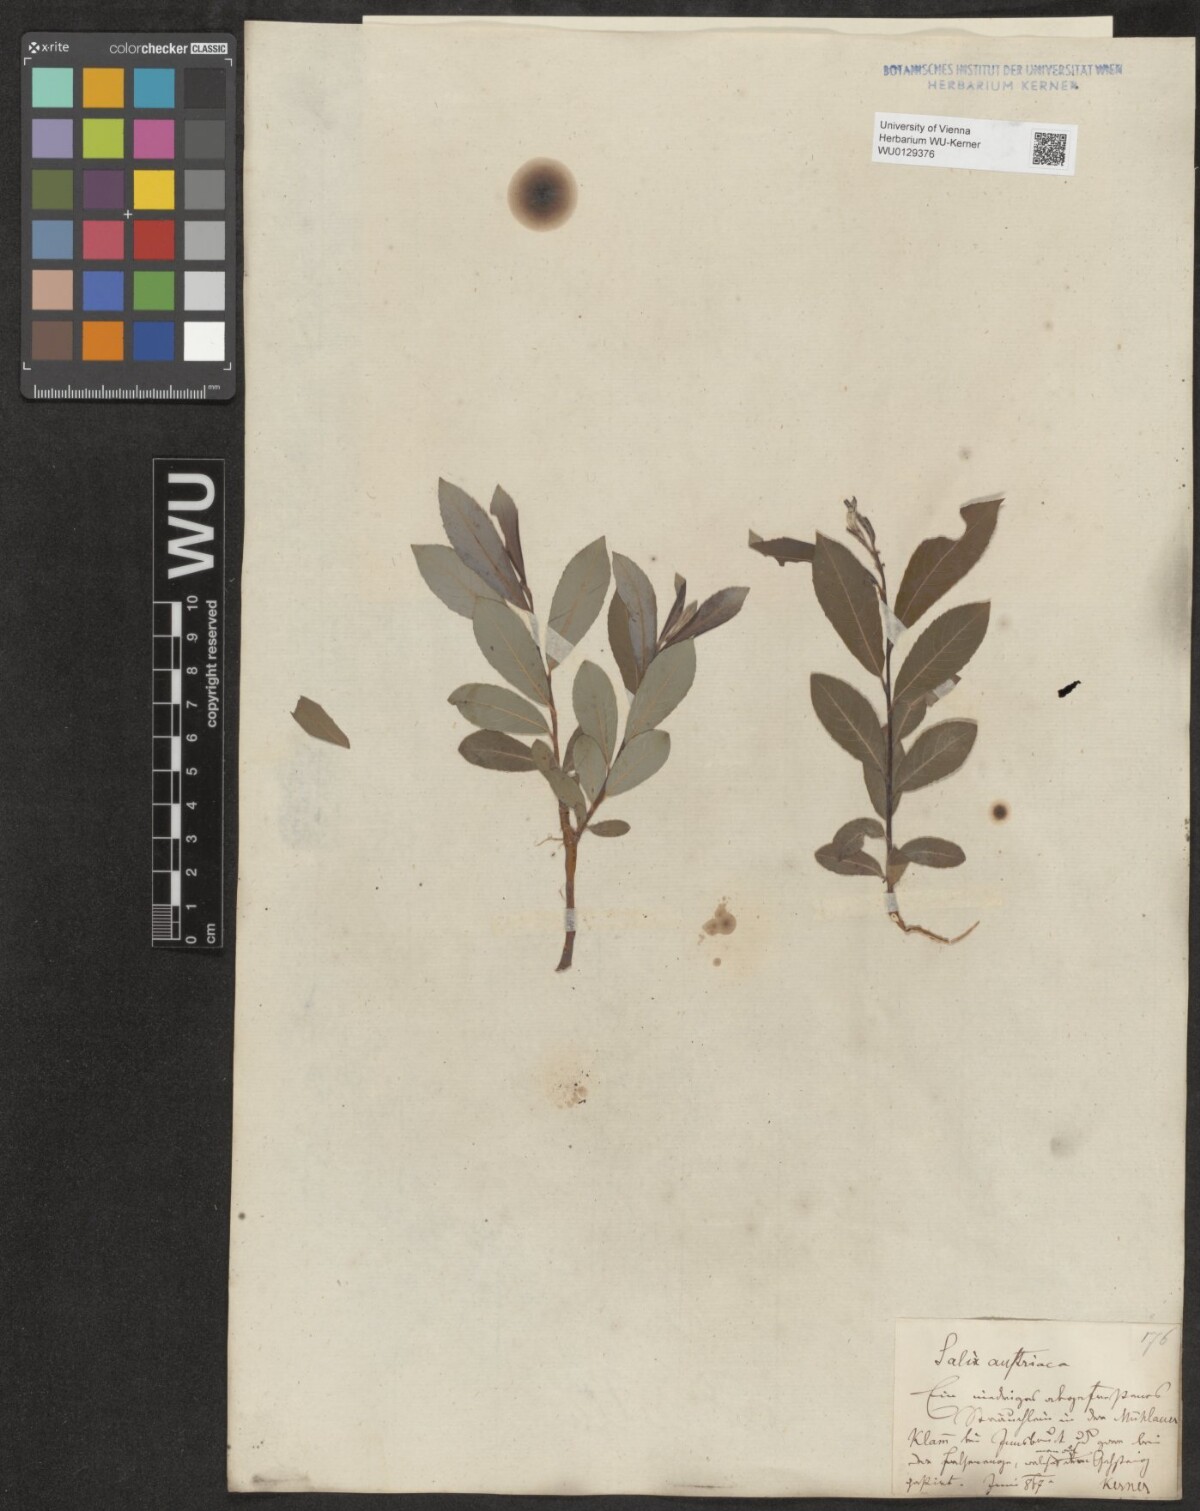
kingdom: Plantae
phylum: Tracheophyta
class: Magnoliopsida
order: Malpighiales
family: Salicaceae
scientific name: Salicaceae
